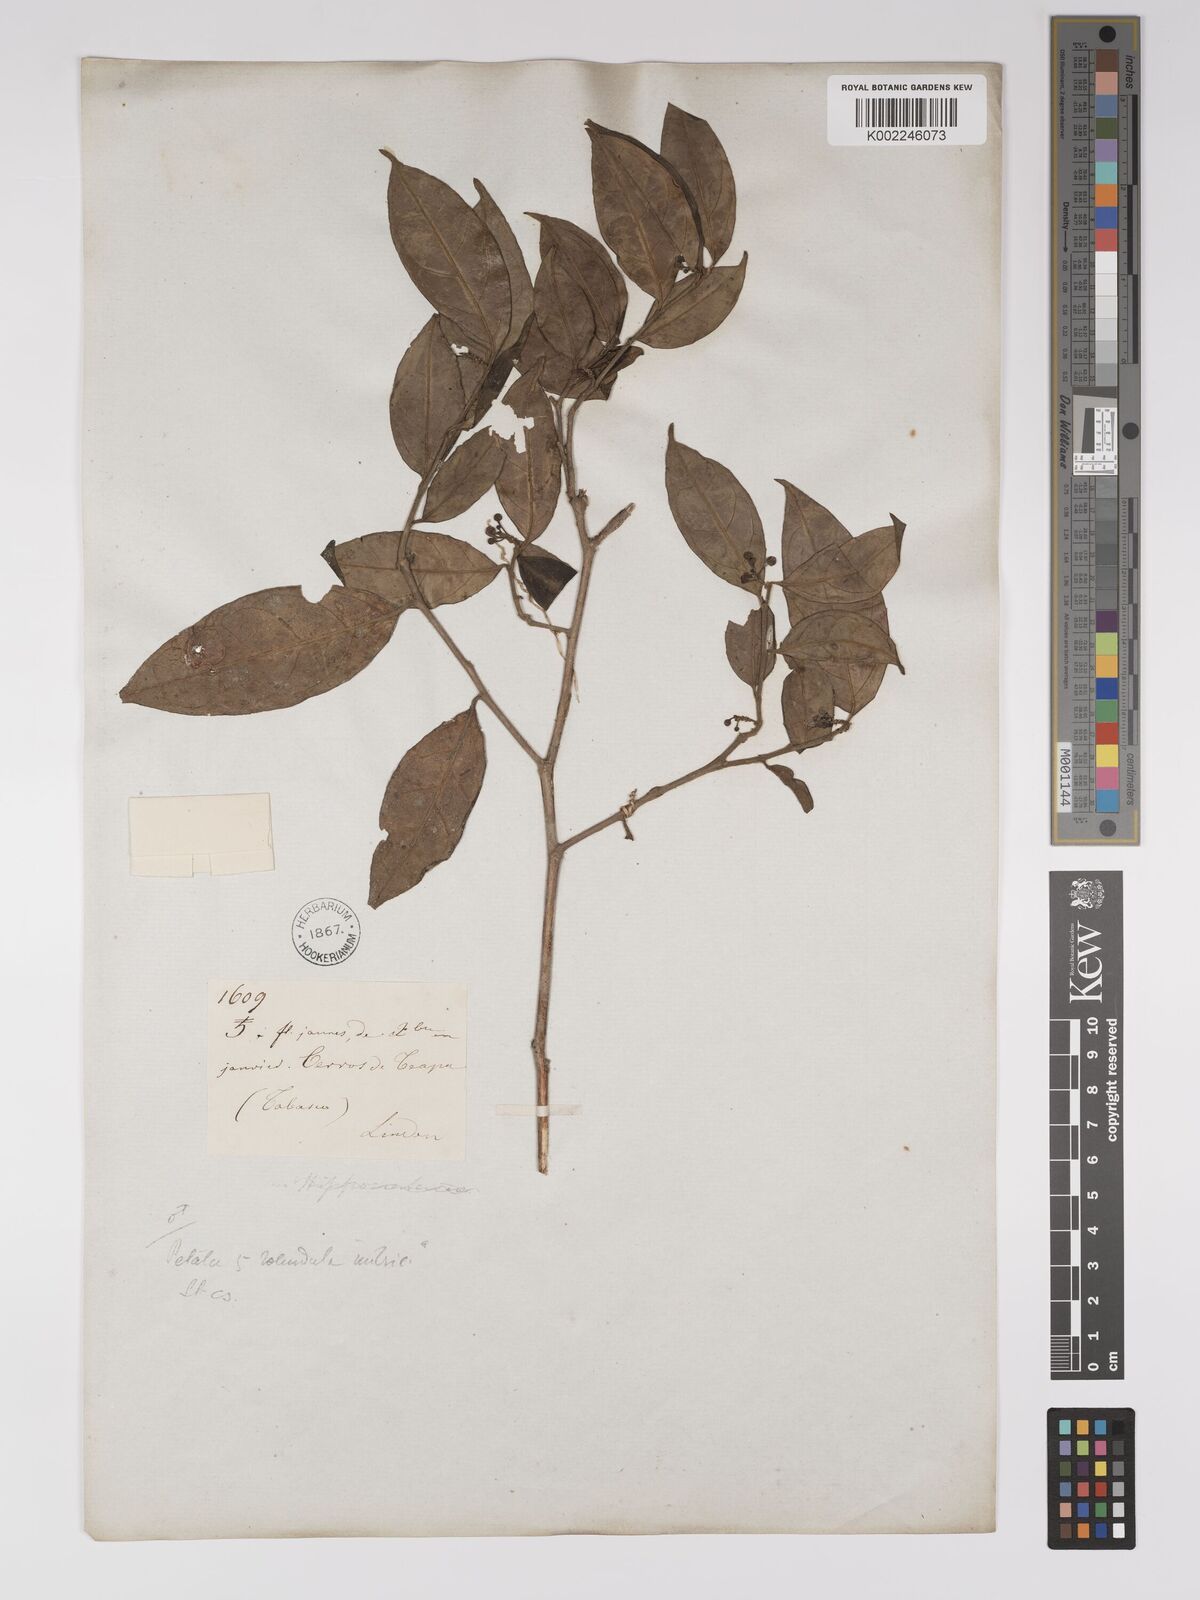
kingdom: Plantae
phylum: Tracheophyta
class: Magnoliopsida
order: Malpighiales
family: Euphorbiaceae
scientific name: Euphorbiaceae
